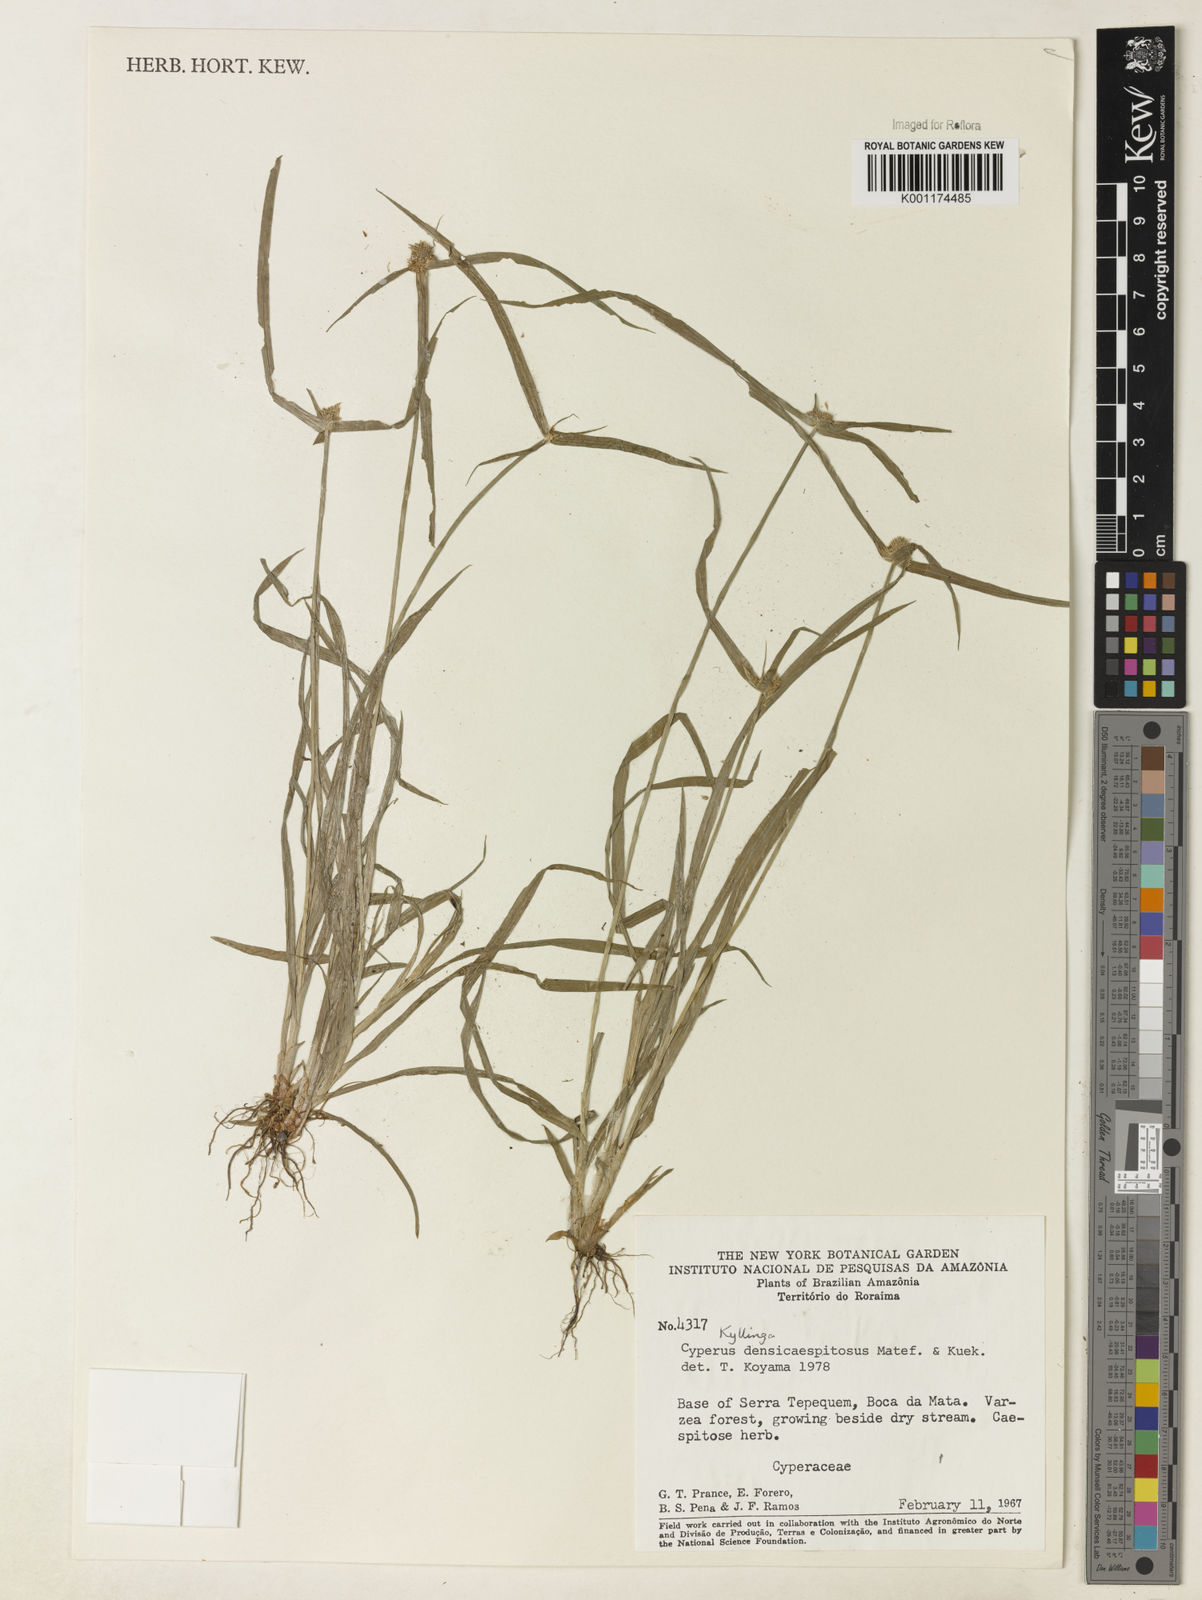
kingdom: Plantae
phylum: Tracheophyta
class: Liliopsida
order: Poales
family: Cyperaceae
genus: Cyperus
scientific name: Cyperus
